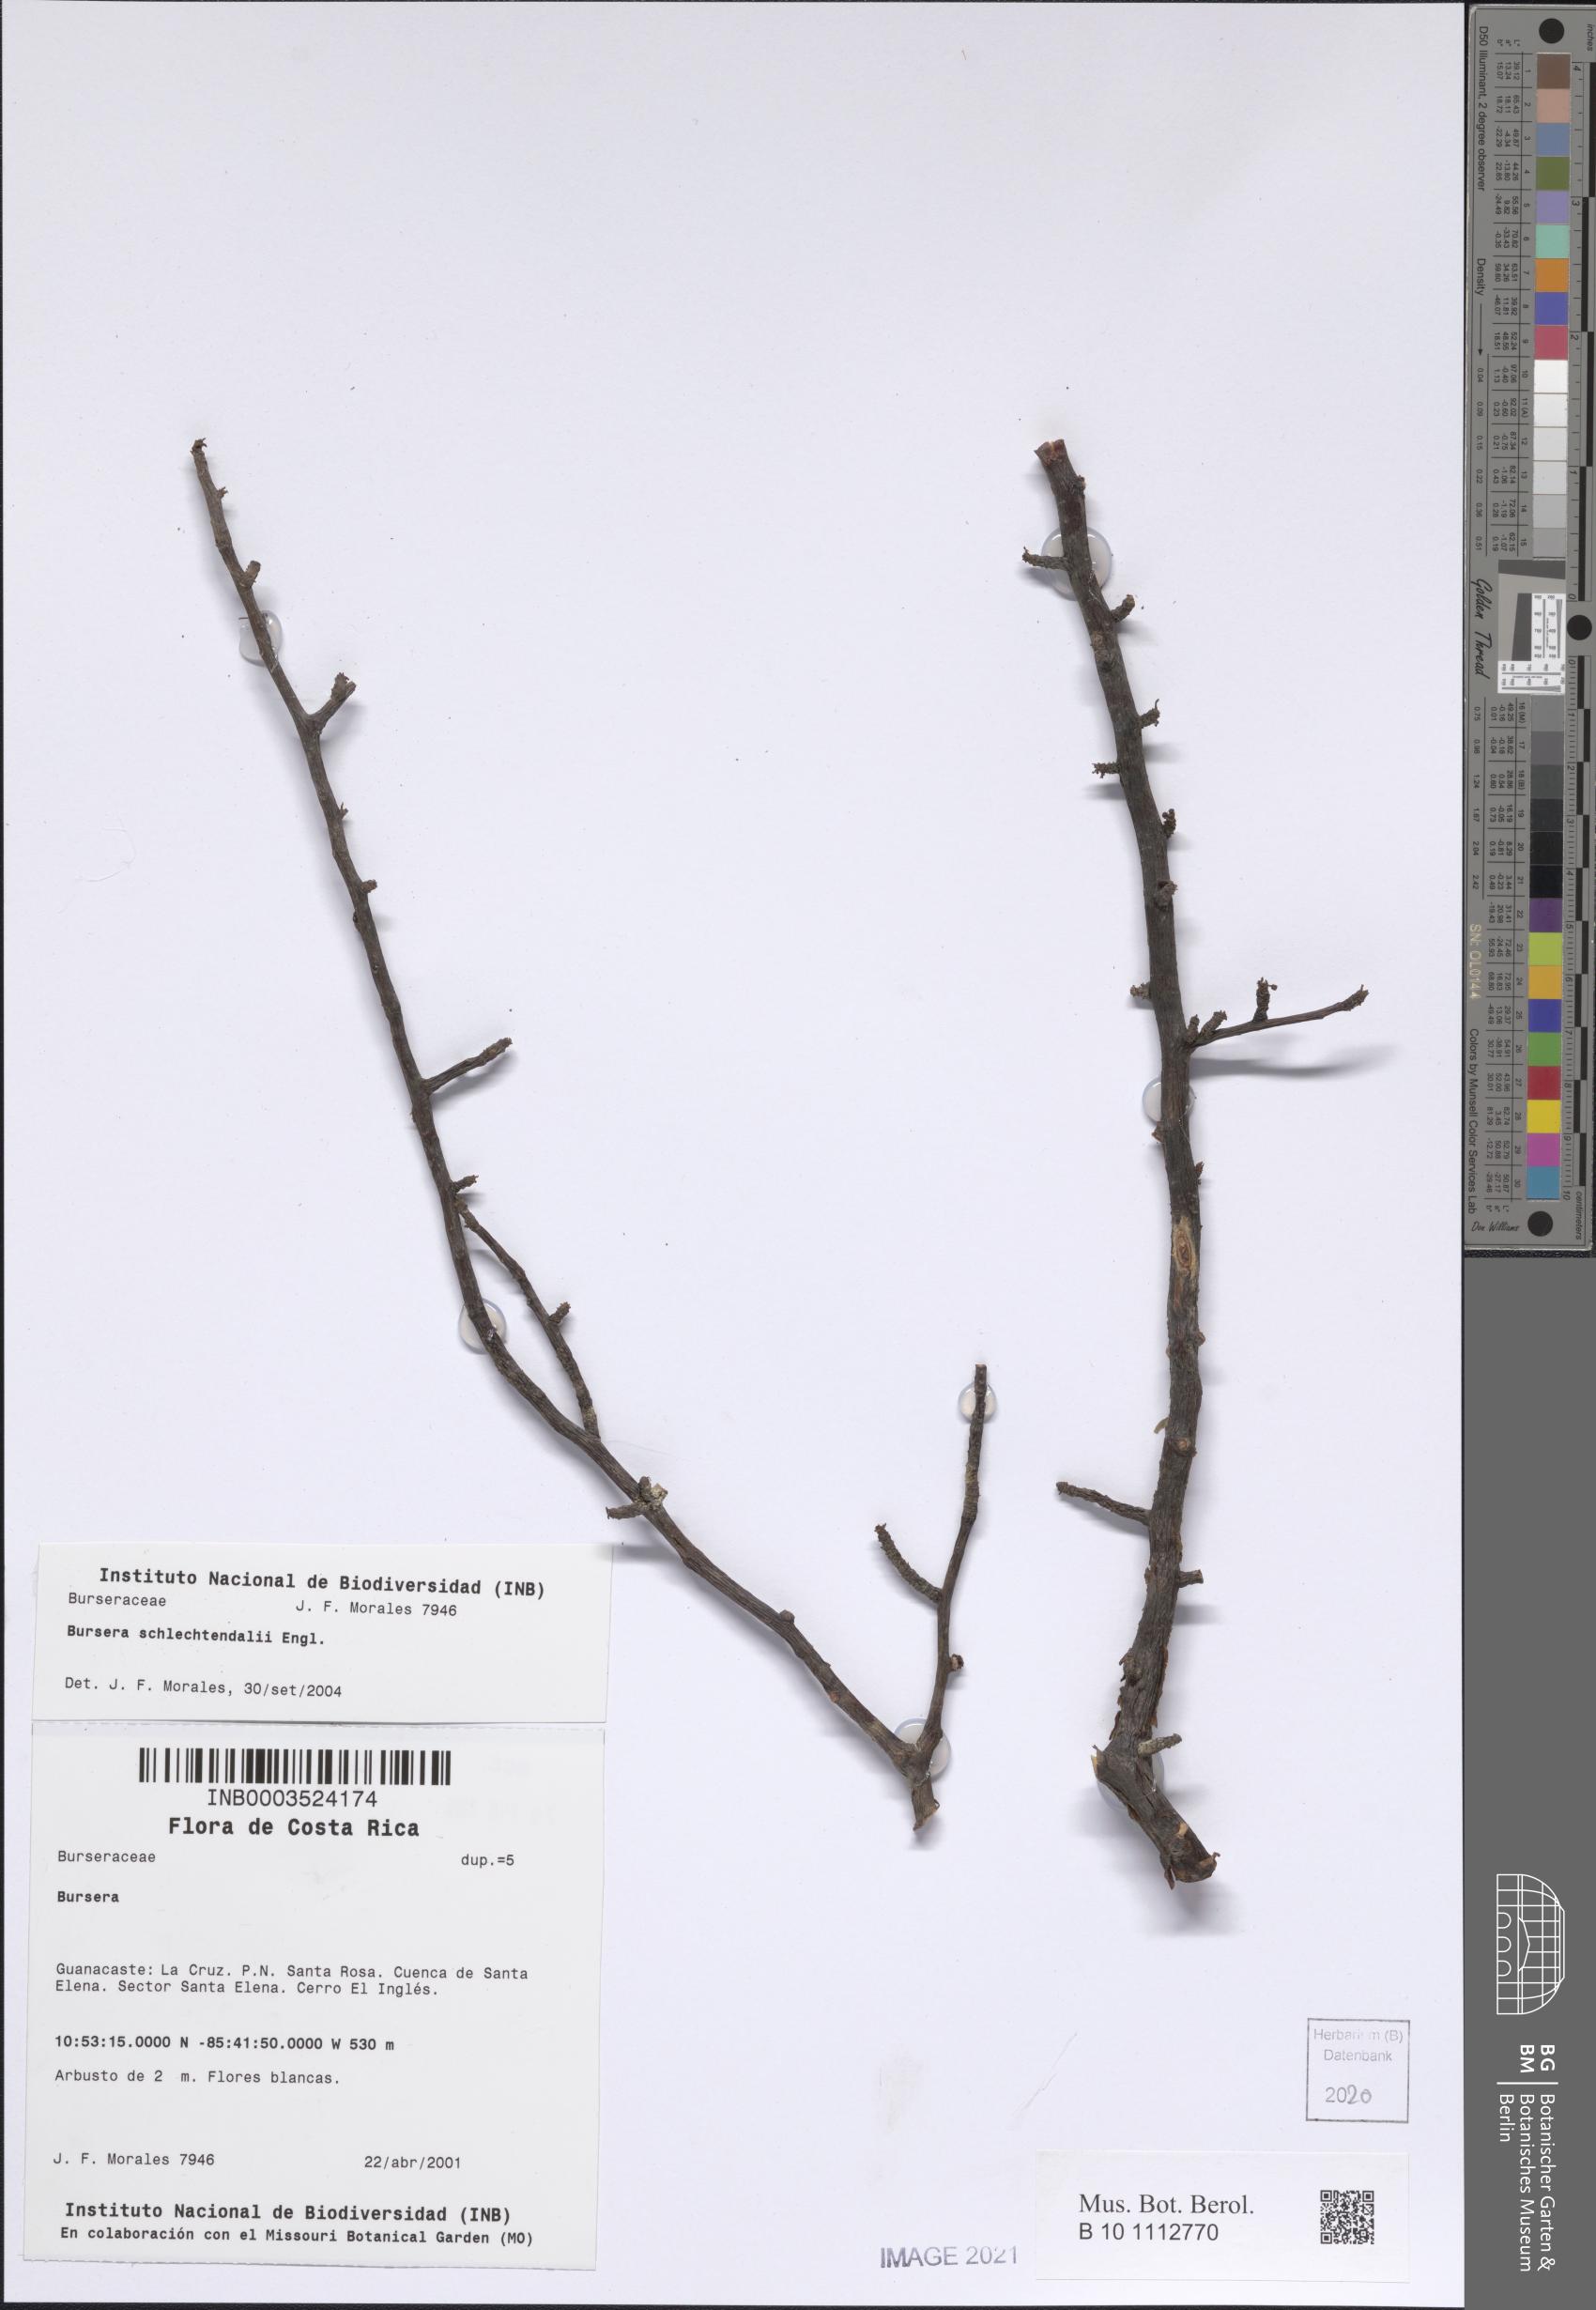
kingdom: Plantae
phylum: Tracheophyta
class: Magnoliopsida
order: Sapindales
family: Burseraceae
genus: Bursera
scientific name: Bursera schlechtendalii
